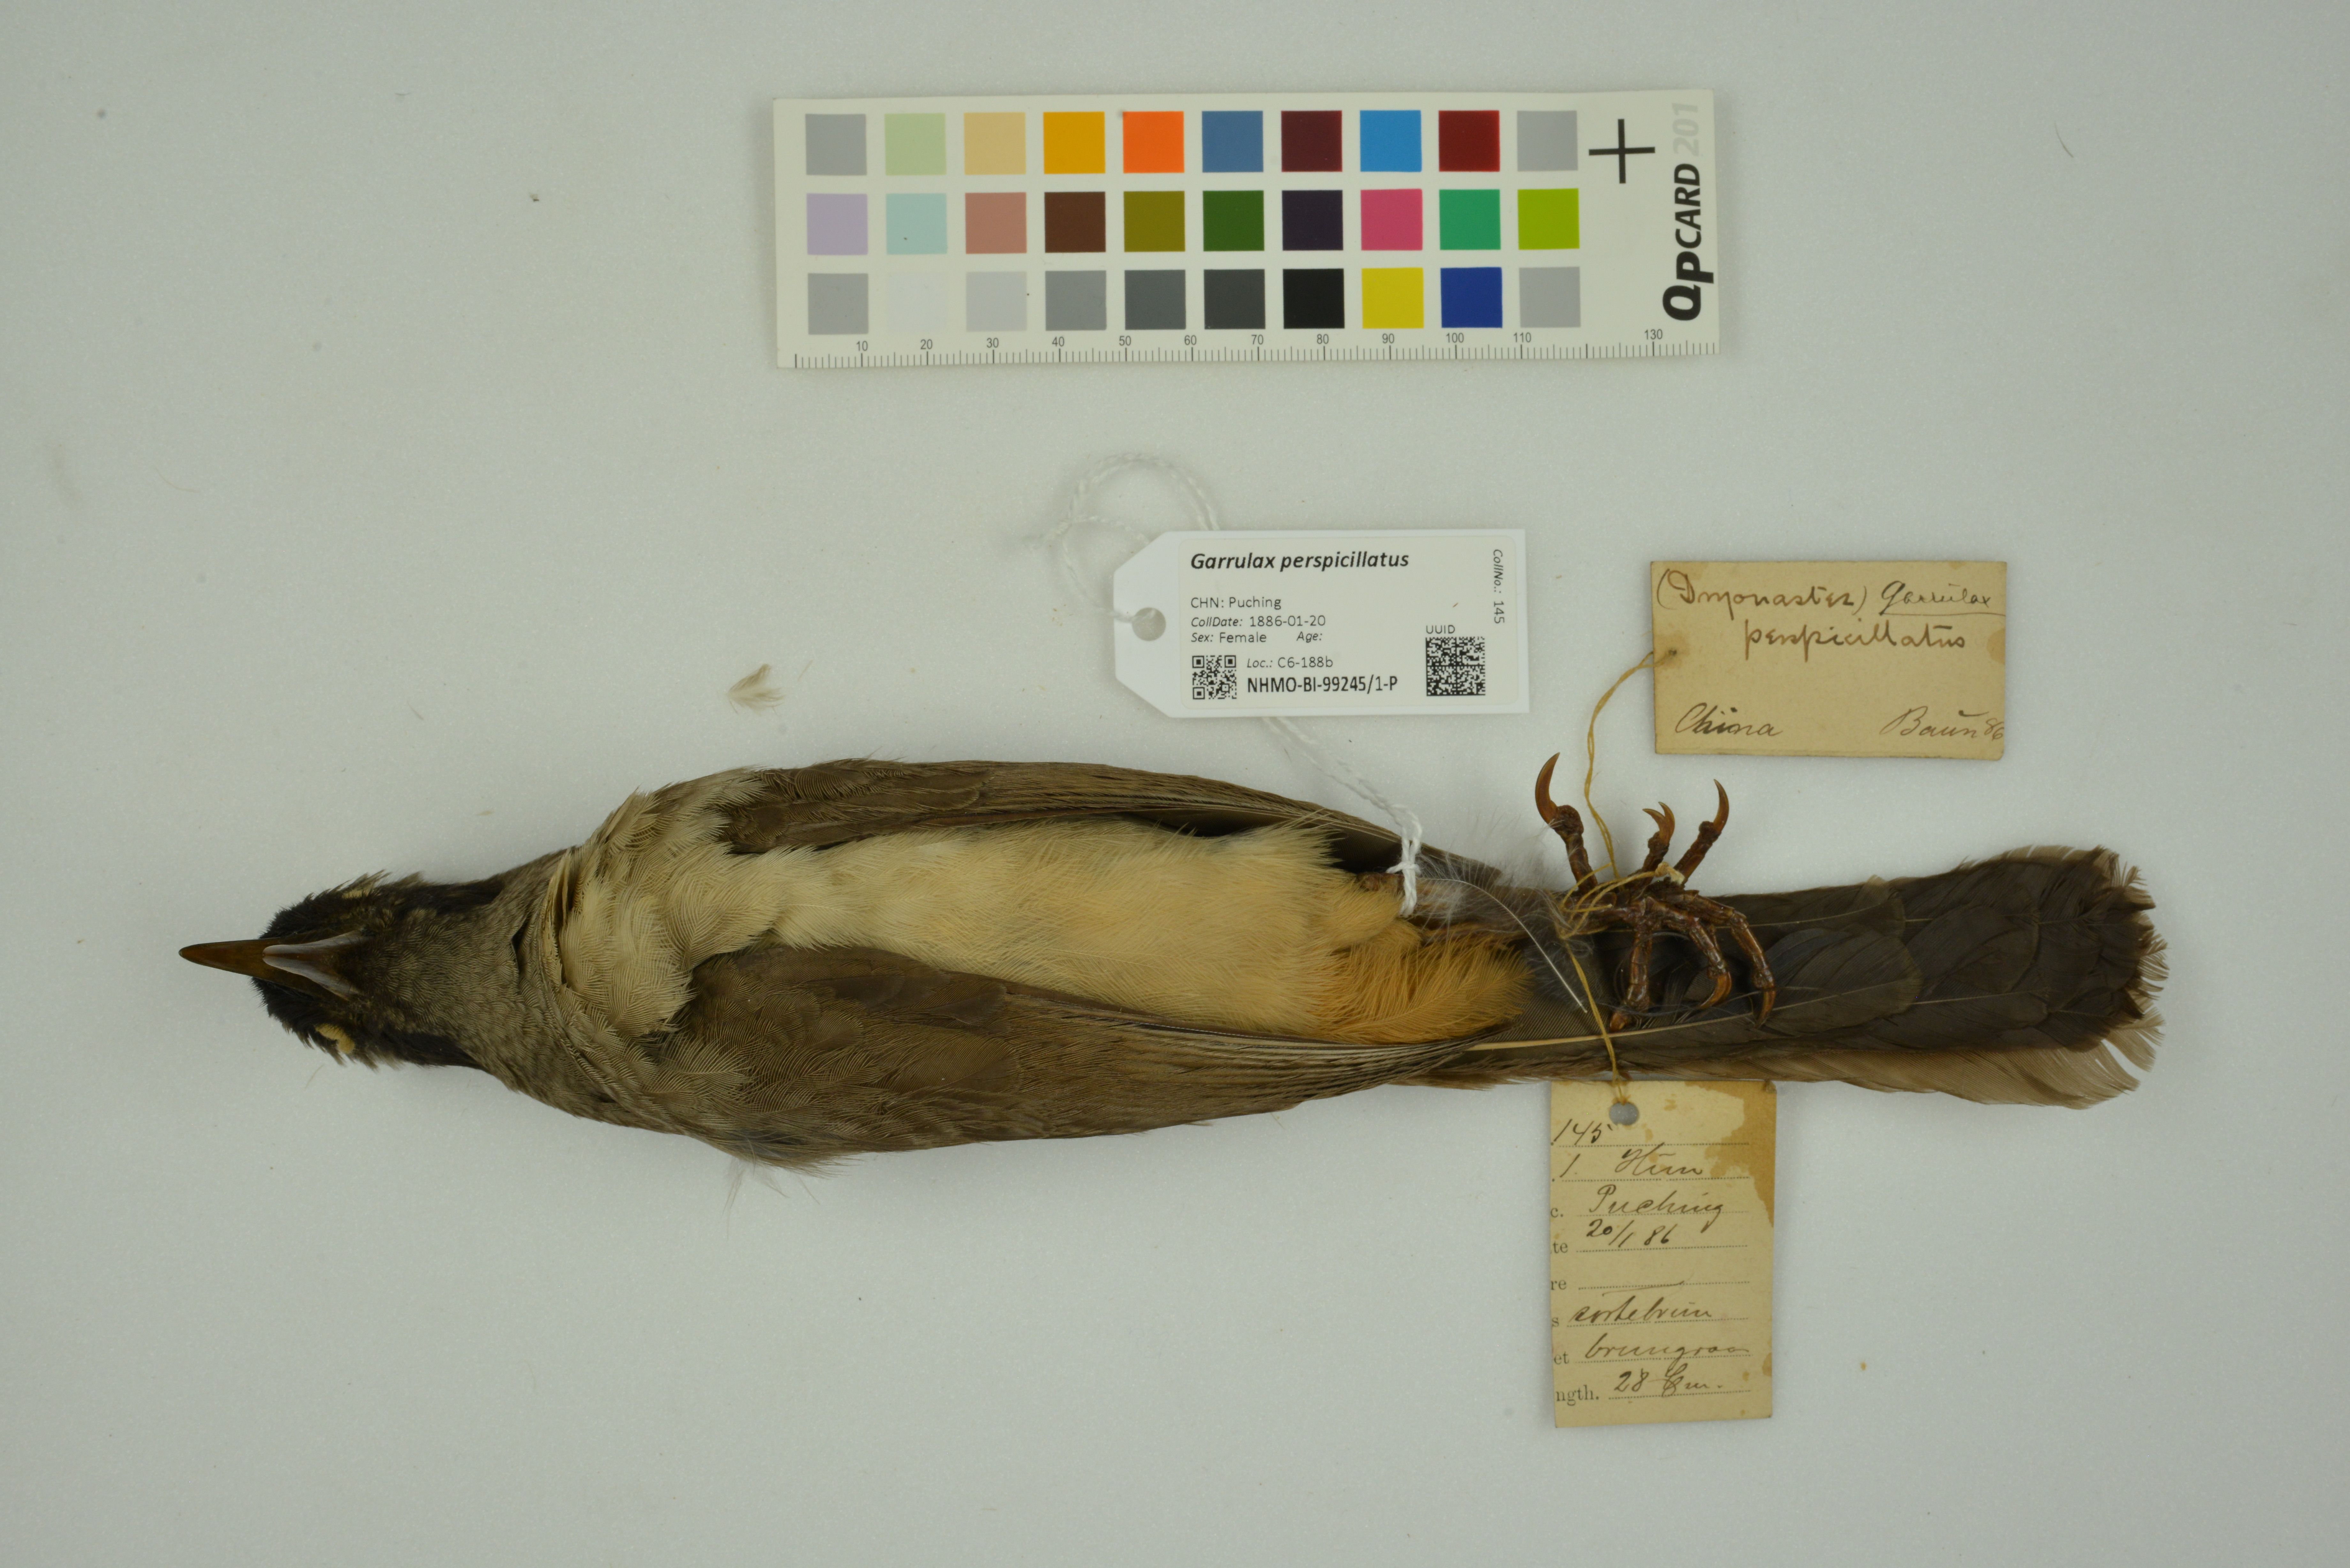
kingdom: Animalia
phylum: Chordata
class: Aves
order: Passeriformes
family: Leiothrichidae
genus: Garrulax
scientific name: Garrulax perspicillatus
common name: Masked laughingthrush
